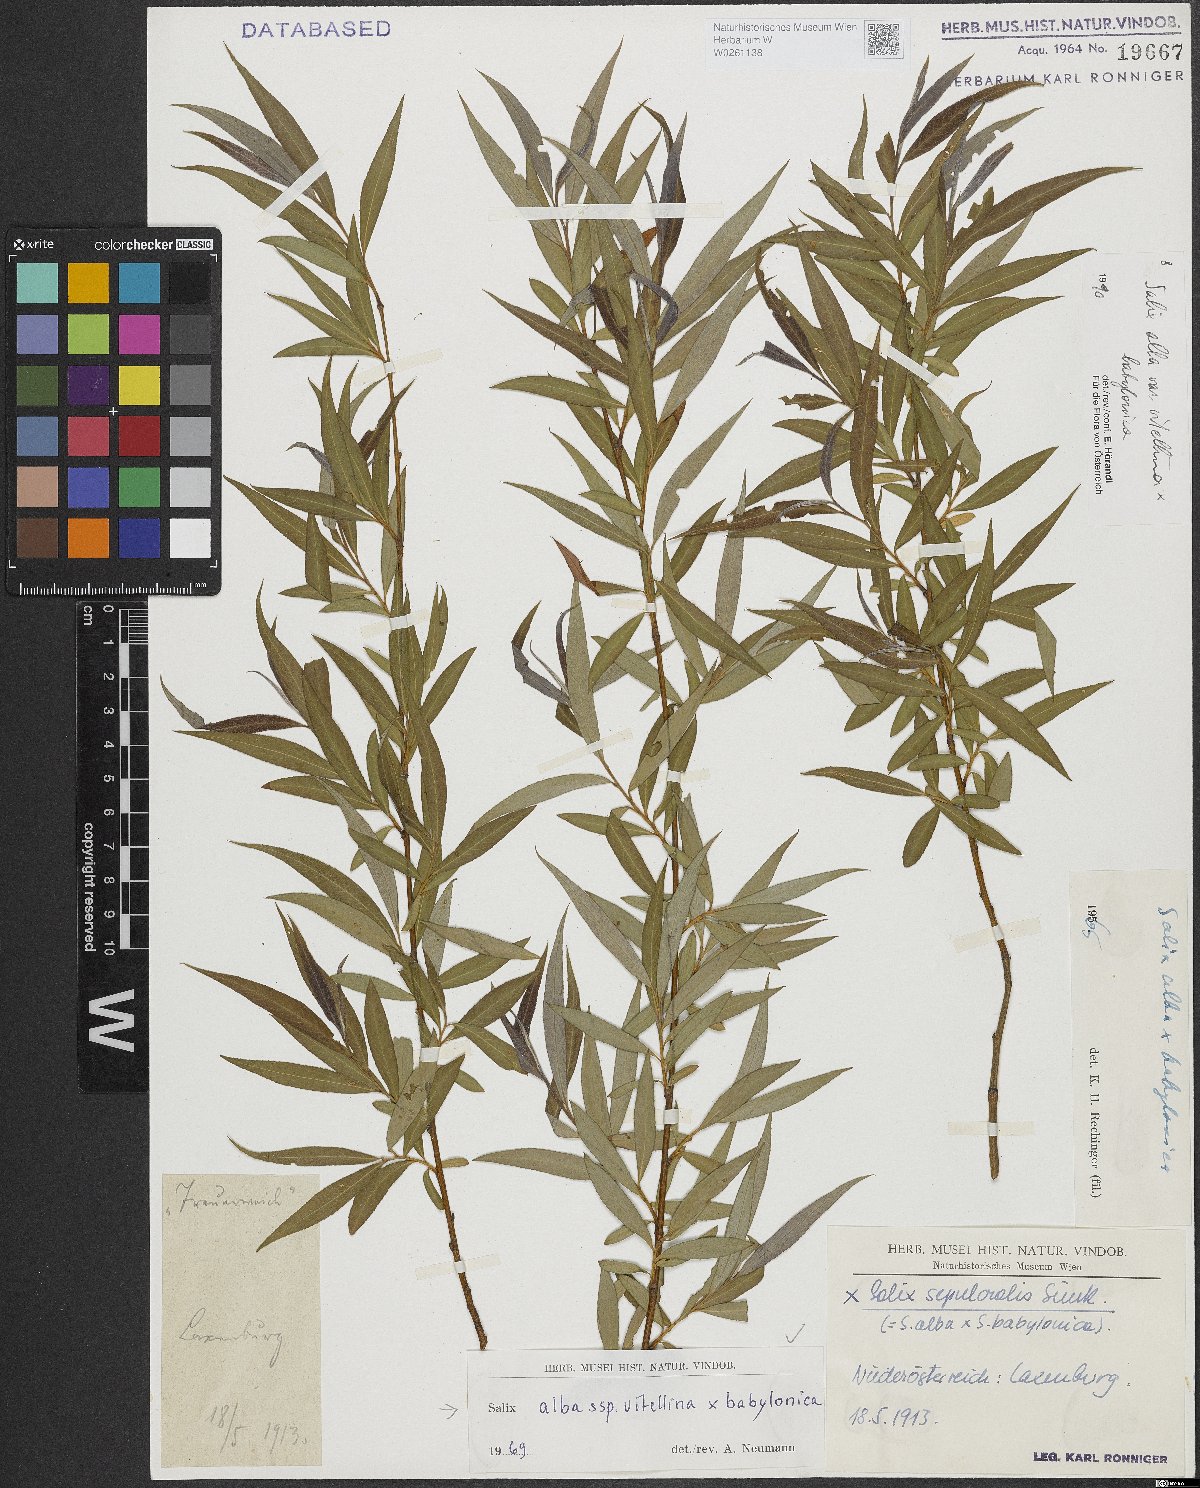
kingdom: Plantae
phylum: Tracheophyta
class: Magnoliopsida
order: Malpighiales
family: Salicaceae
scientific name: Salicaceae
